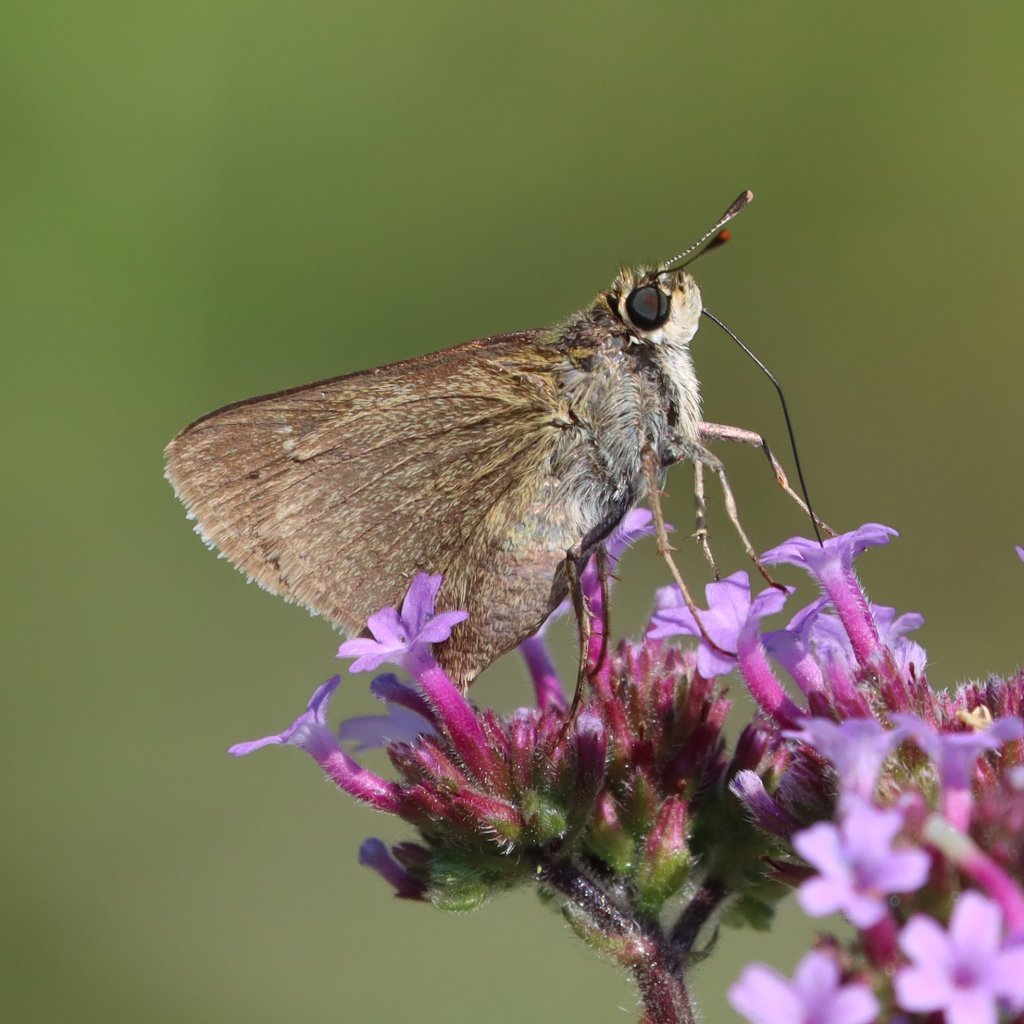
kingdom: Animalia
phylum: Arthropoda
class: Insecta
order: Lepidoptera
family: Hesperiidae
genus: Euphyes
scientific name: Euphyes vestris
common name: Dun Skipper
